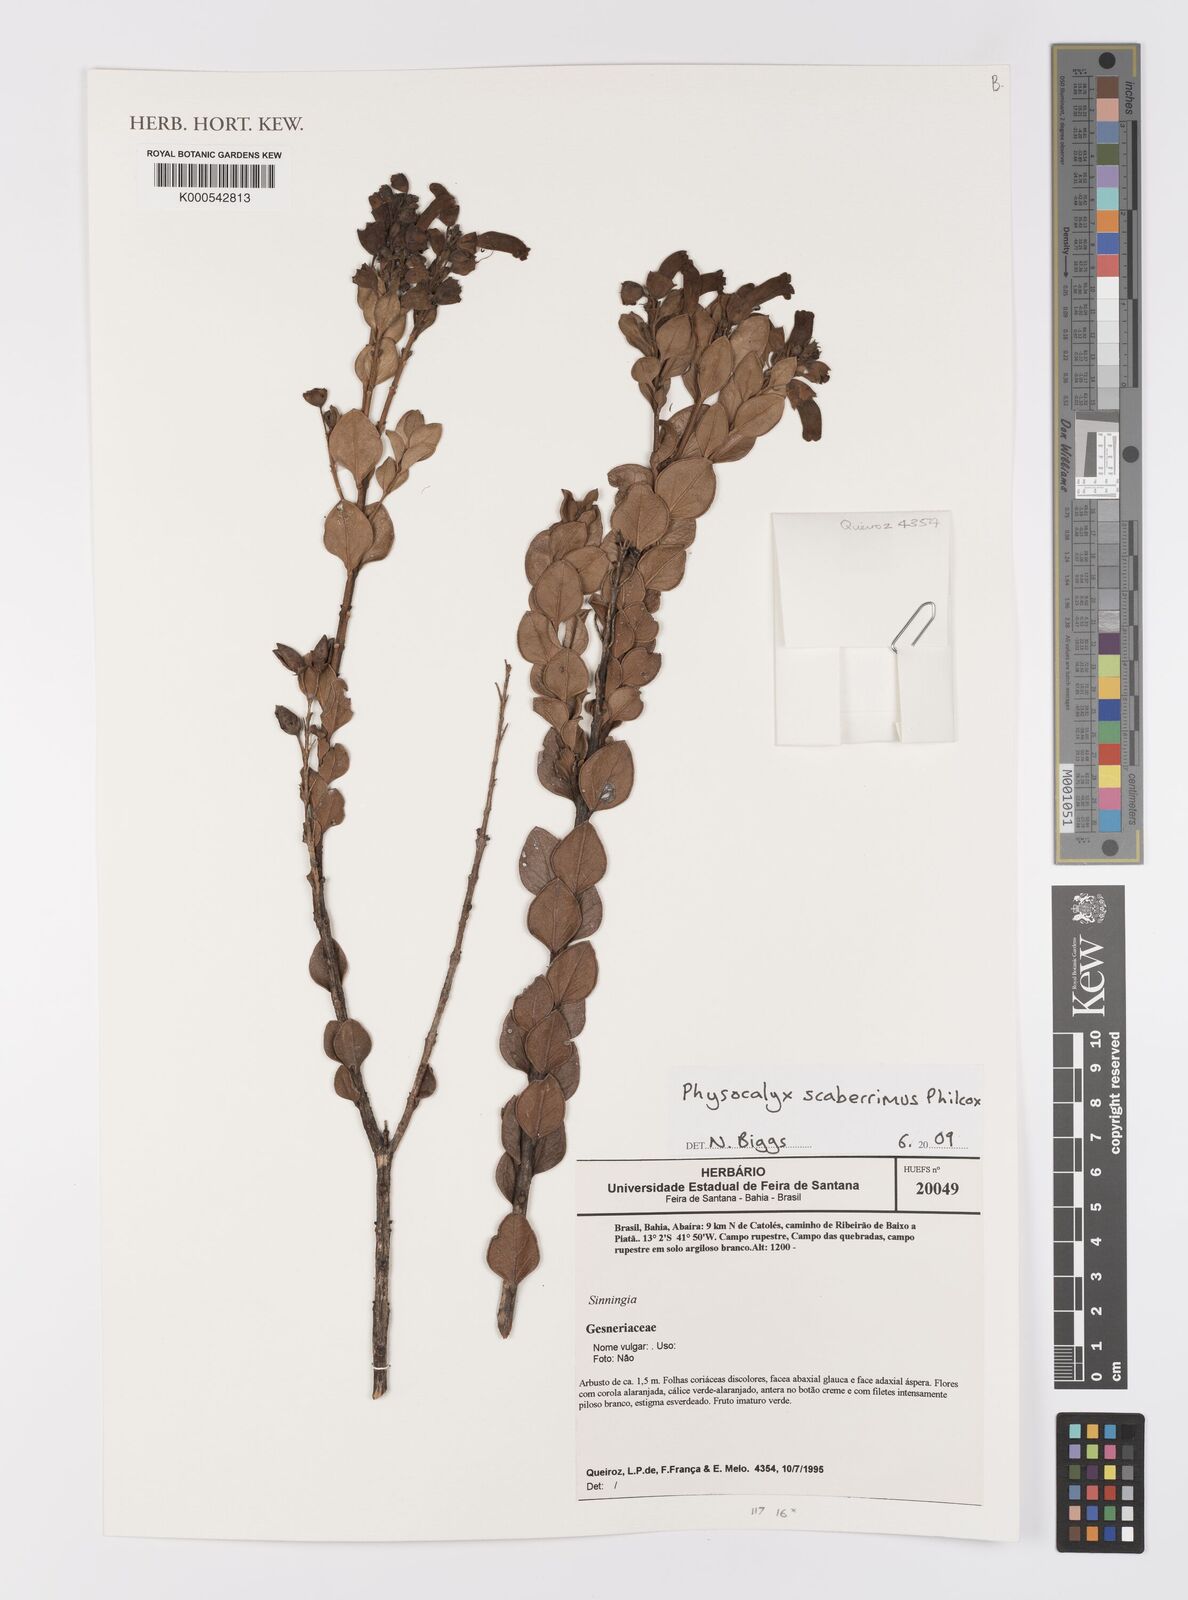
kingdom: Plantae
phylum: Tracheophyta
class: Magnoliopsida
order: Lamiales
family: Orobanchaceae
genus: Physocalyx
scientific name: Physocalyx scaberrimus
